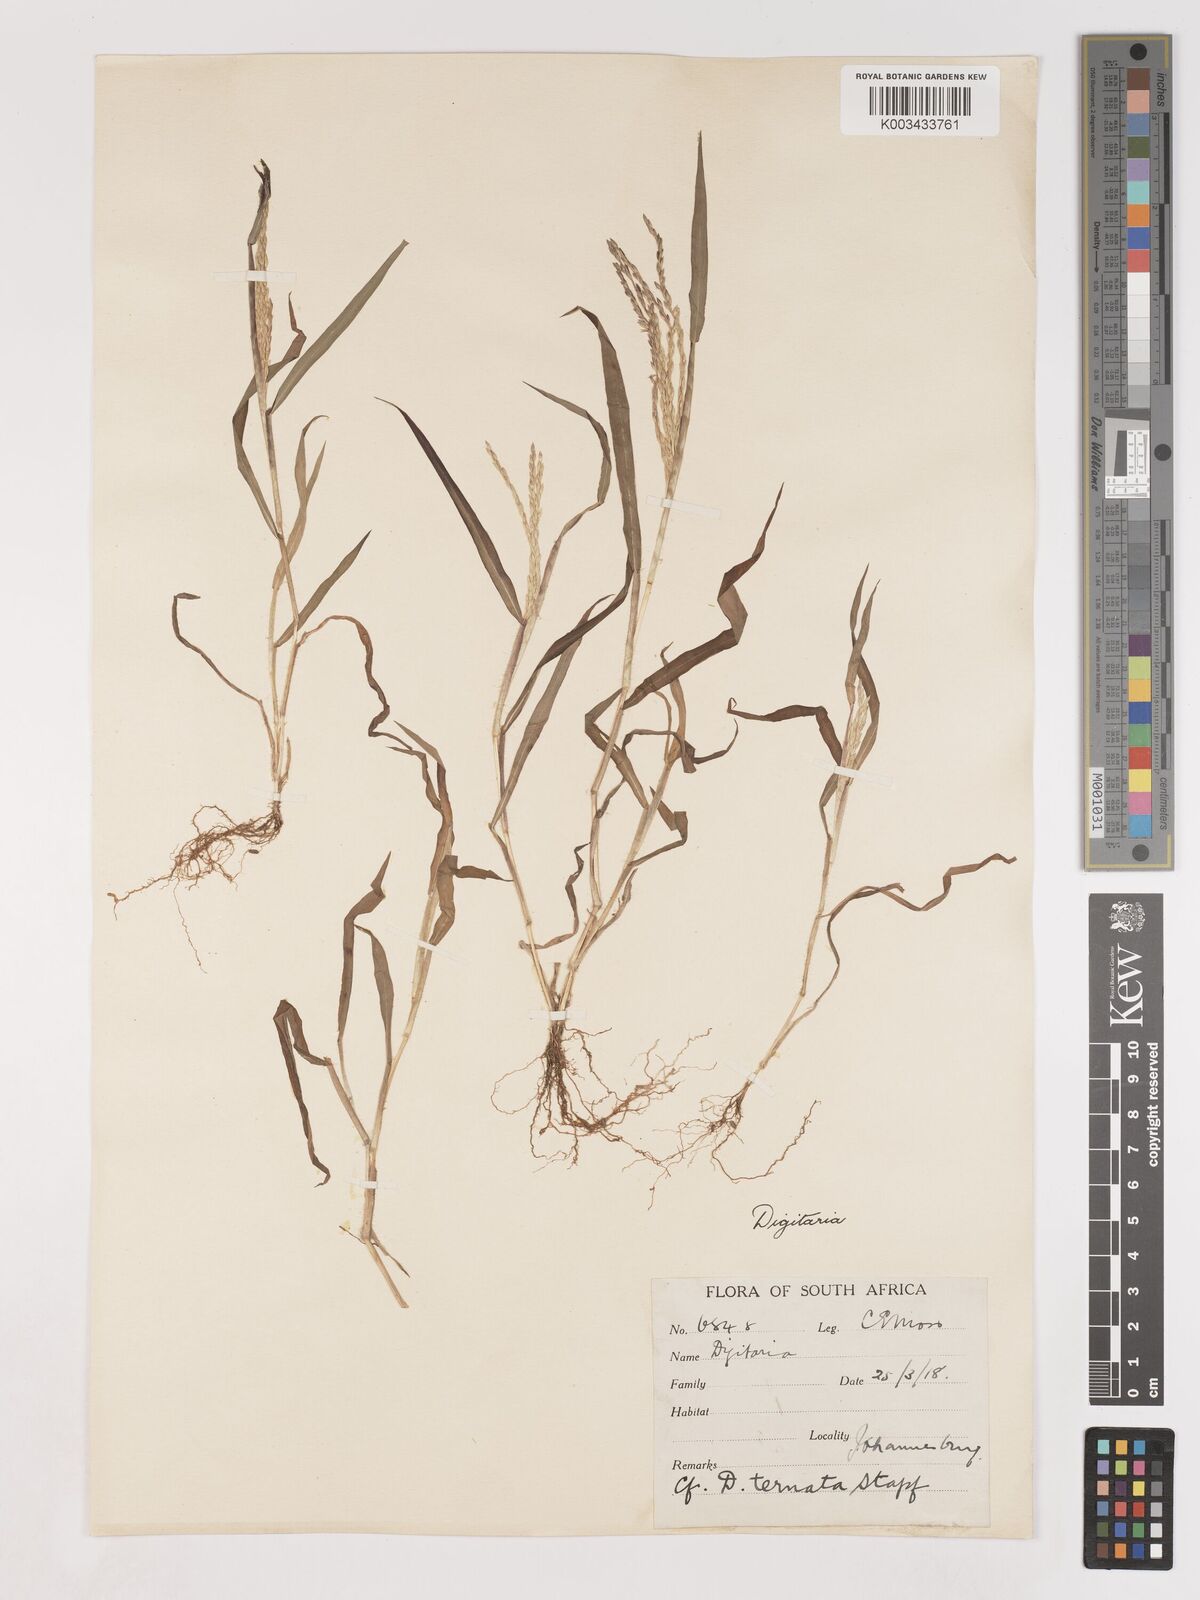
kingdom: Plantae
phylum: Tracheophyta
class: Liliopsida
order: Poales
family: Poaceae
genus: Digitaria
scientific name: Digitaria ciliaris
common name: Tropical finger-grass
